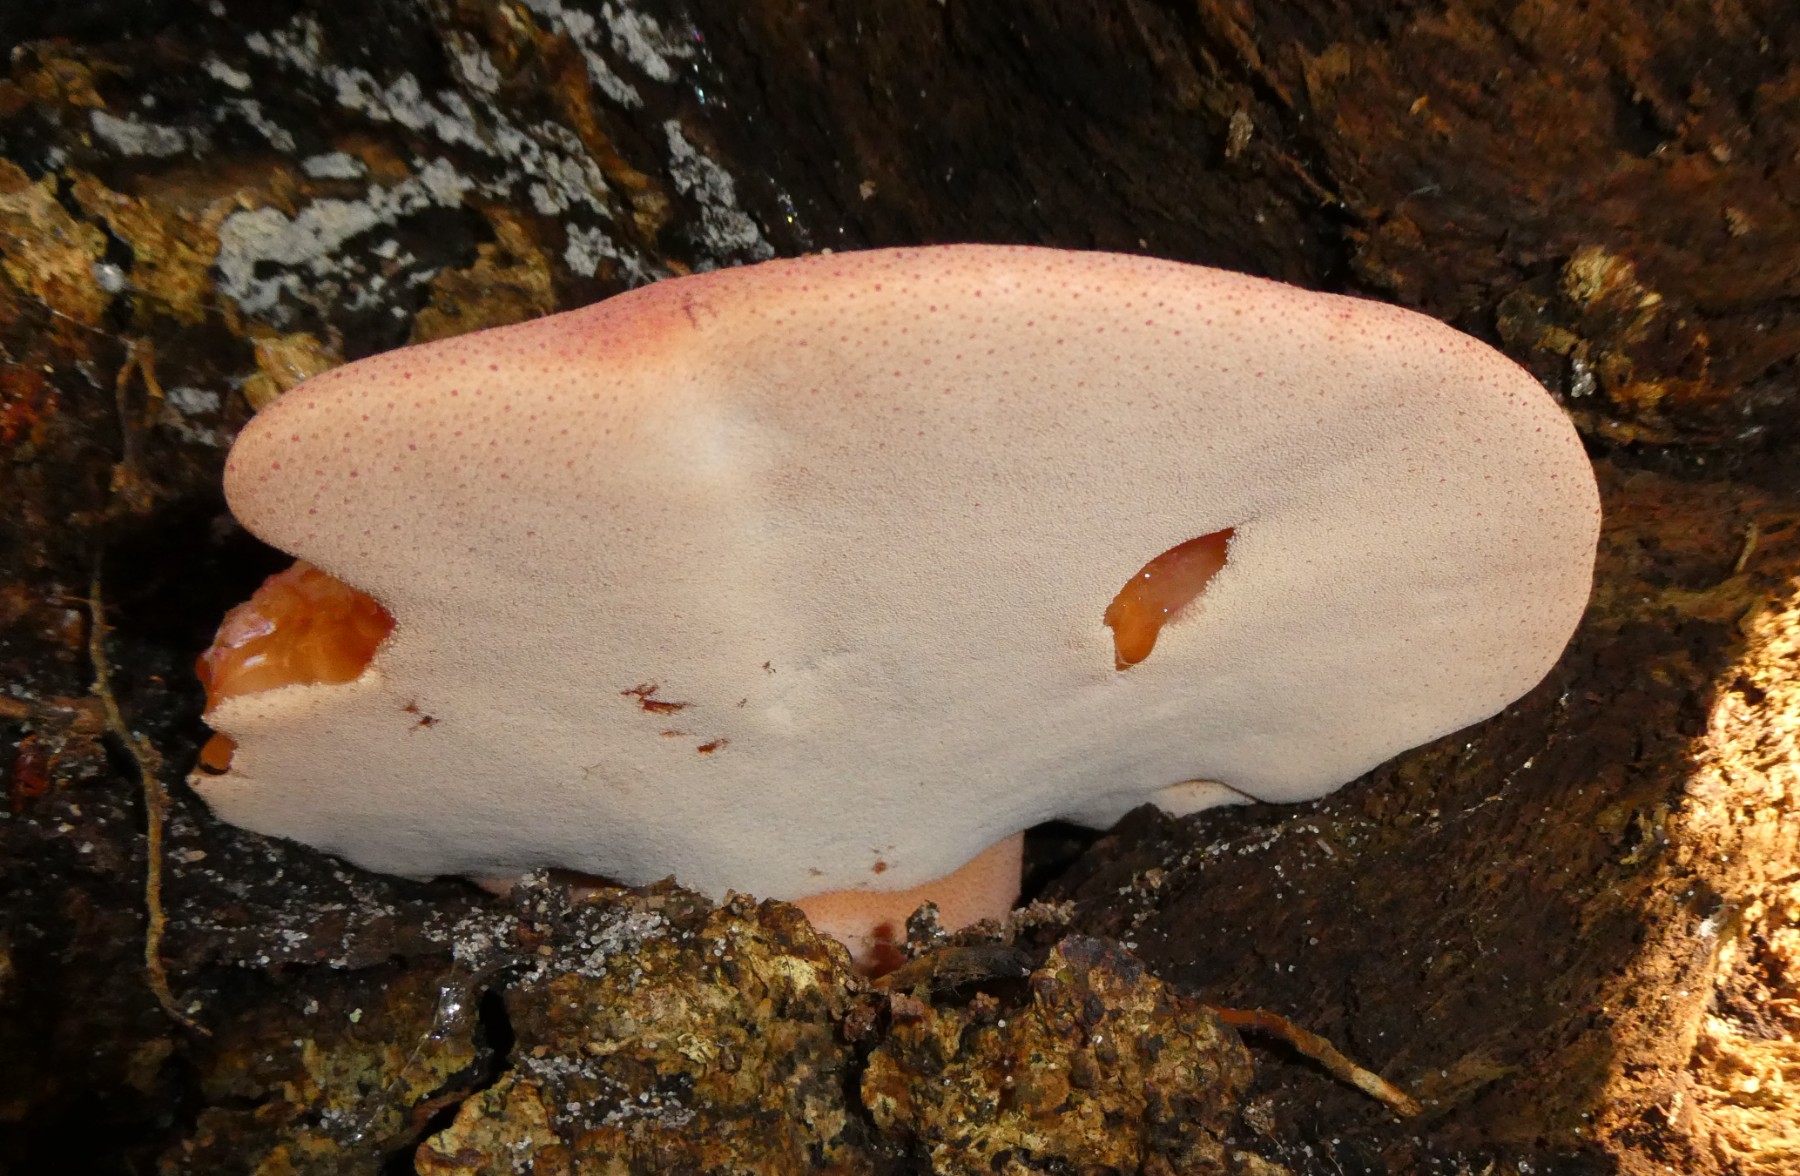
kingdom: Fungi
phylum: Basidiomycota
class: Agaricomycetes
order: Agaricales
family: Fistulinaceae
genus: Fistulina
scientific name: Fistulina hepatica
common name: oksetunge
